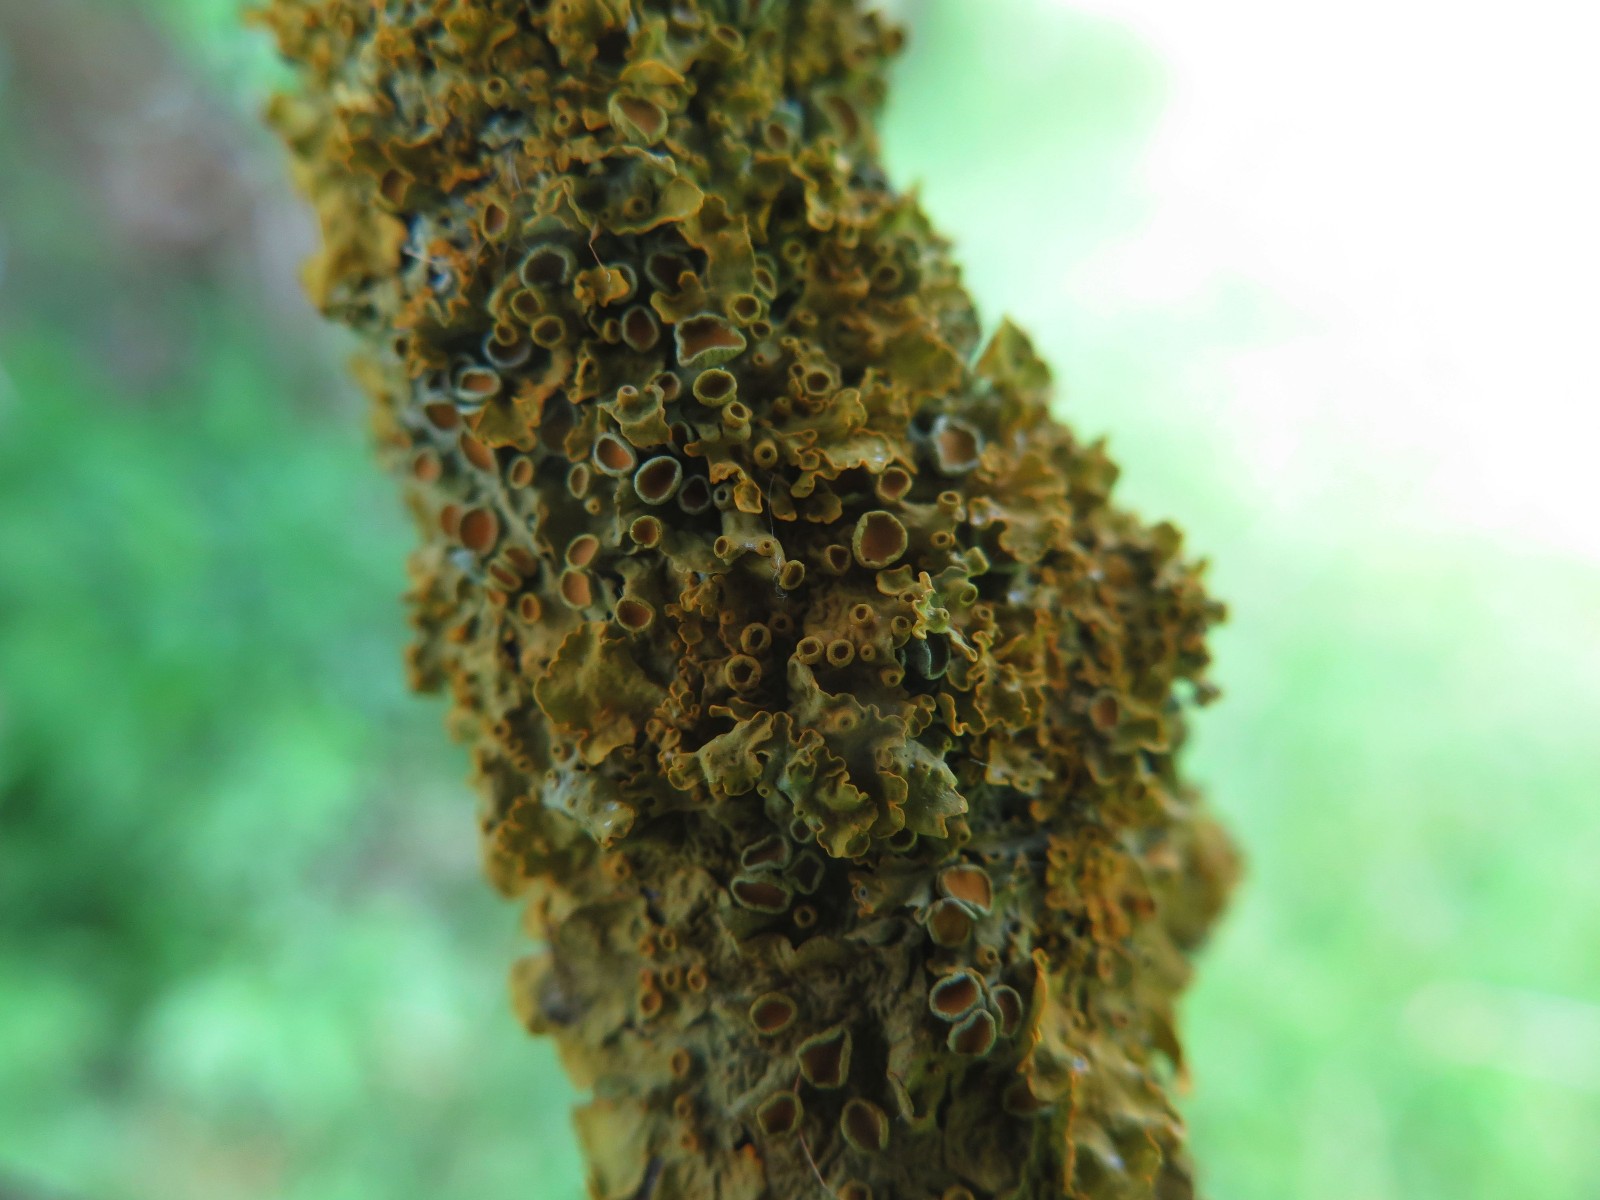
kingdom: Fungi
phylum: Ascomycota
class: Lecanoromycetes
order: Teloschistales
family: Teloschistaceae
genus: Xanthoria
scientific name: Xanthoria parietina
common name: almindelig væggelav
